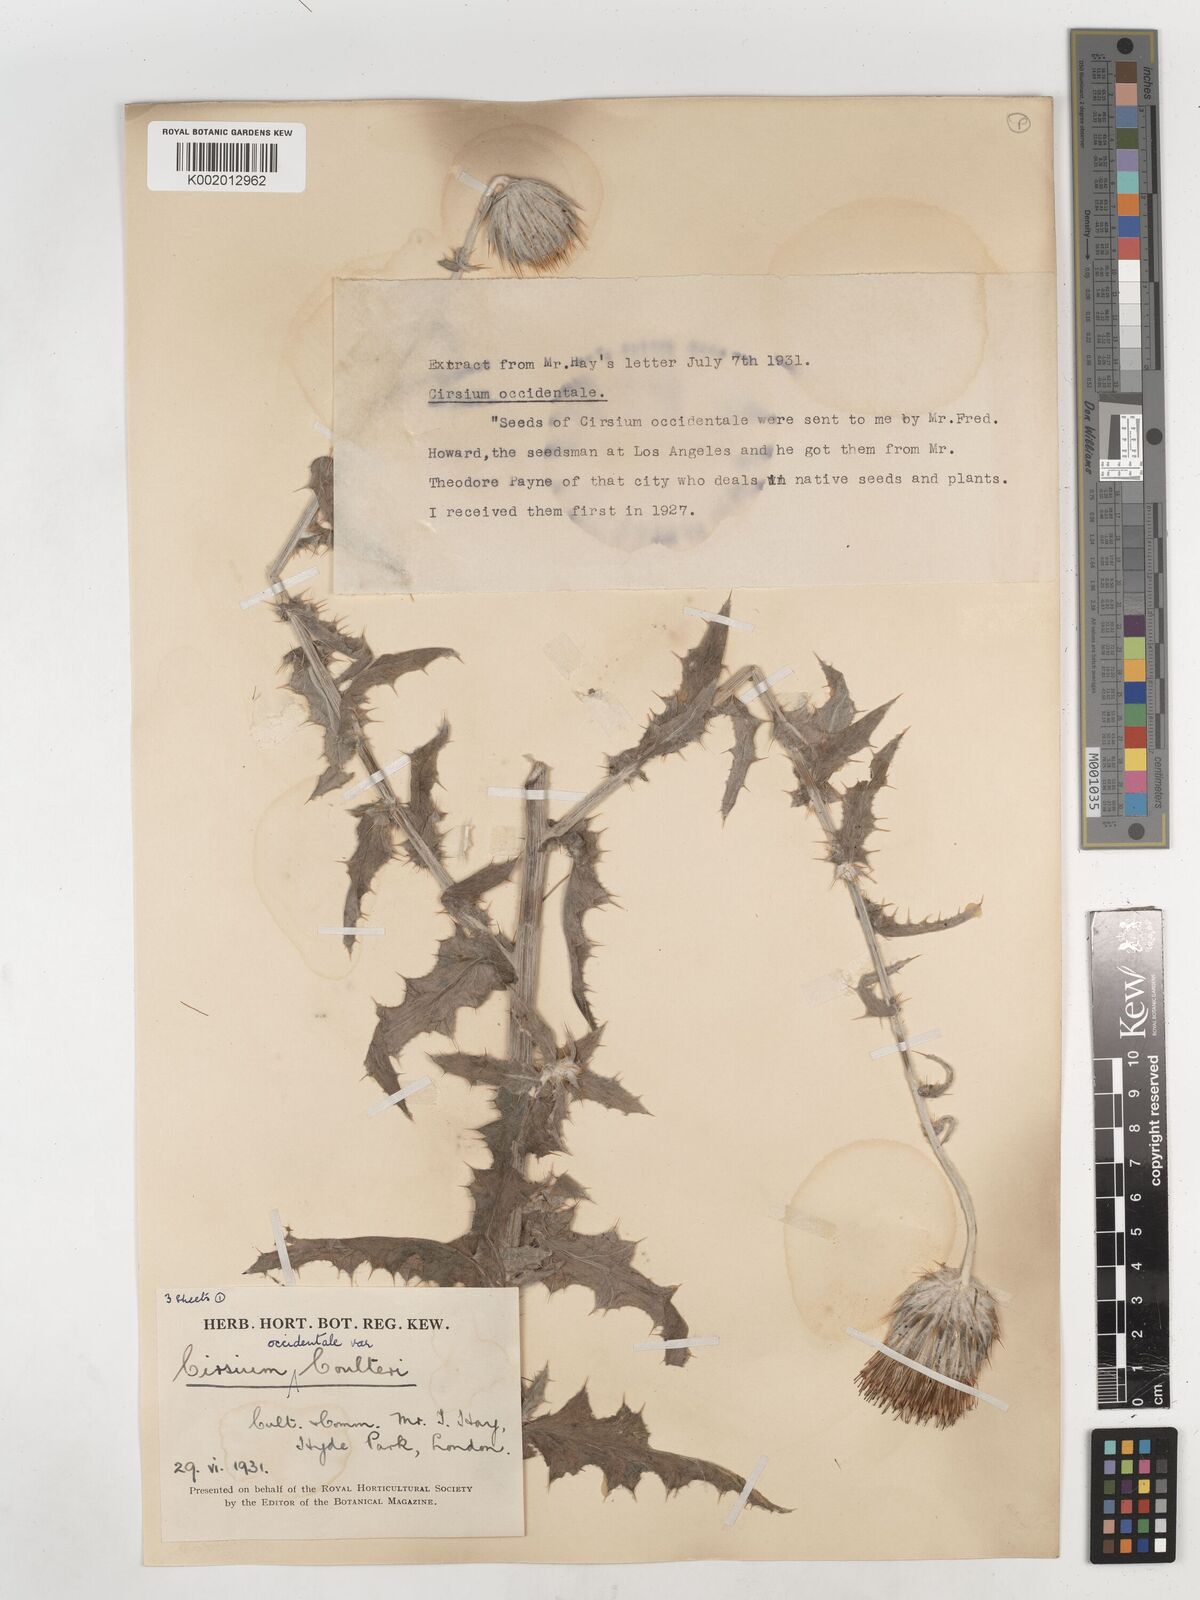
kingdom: Plantae
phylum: Tracheophyta
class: Magnoliopsida
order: Asterales
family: Asteraceae
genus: Cirsium
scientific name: Cirsium occidentale
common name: Western thistle
